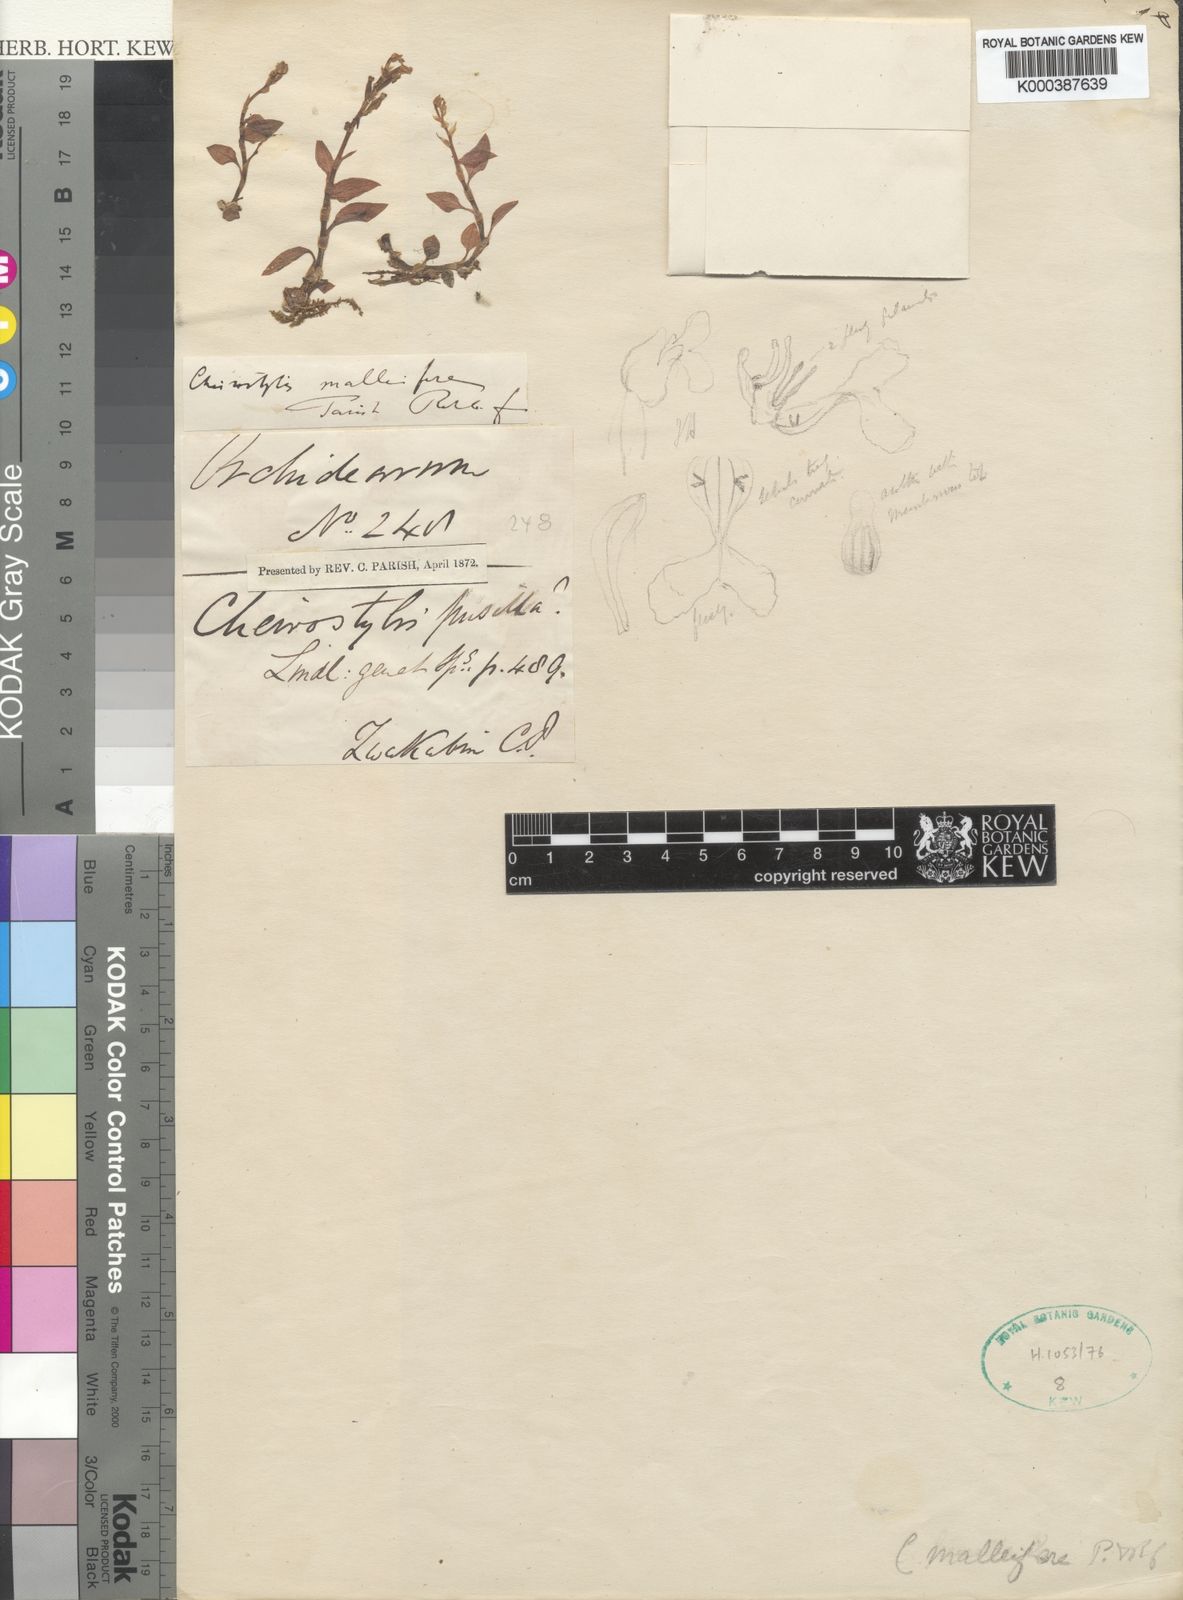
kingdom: Plantae
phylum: Tracheophyta
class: Liliopsida
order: Asparagales
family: Orchidaceae
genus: Cheirostylis
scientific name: Cheirostylis pusilla
